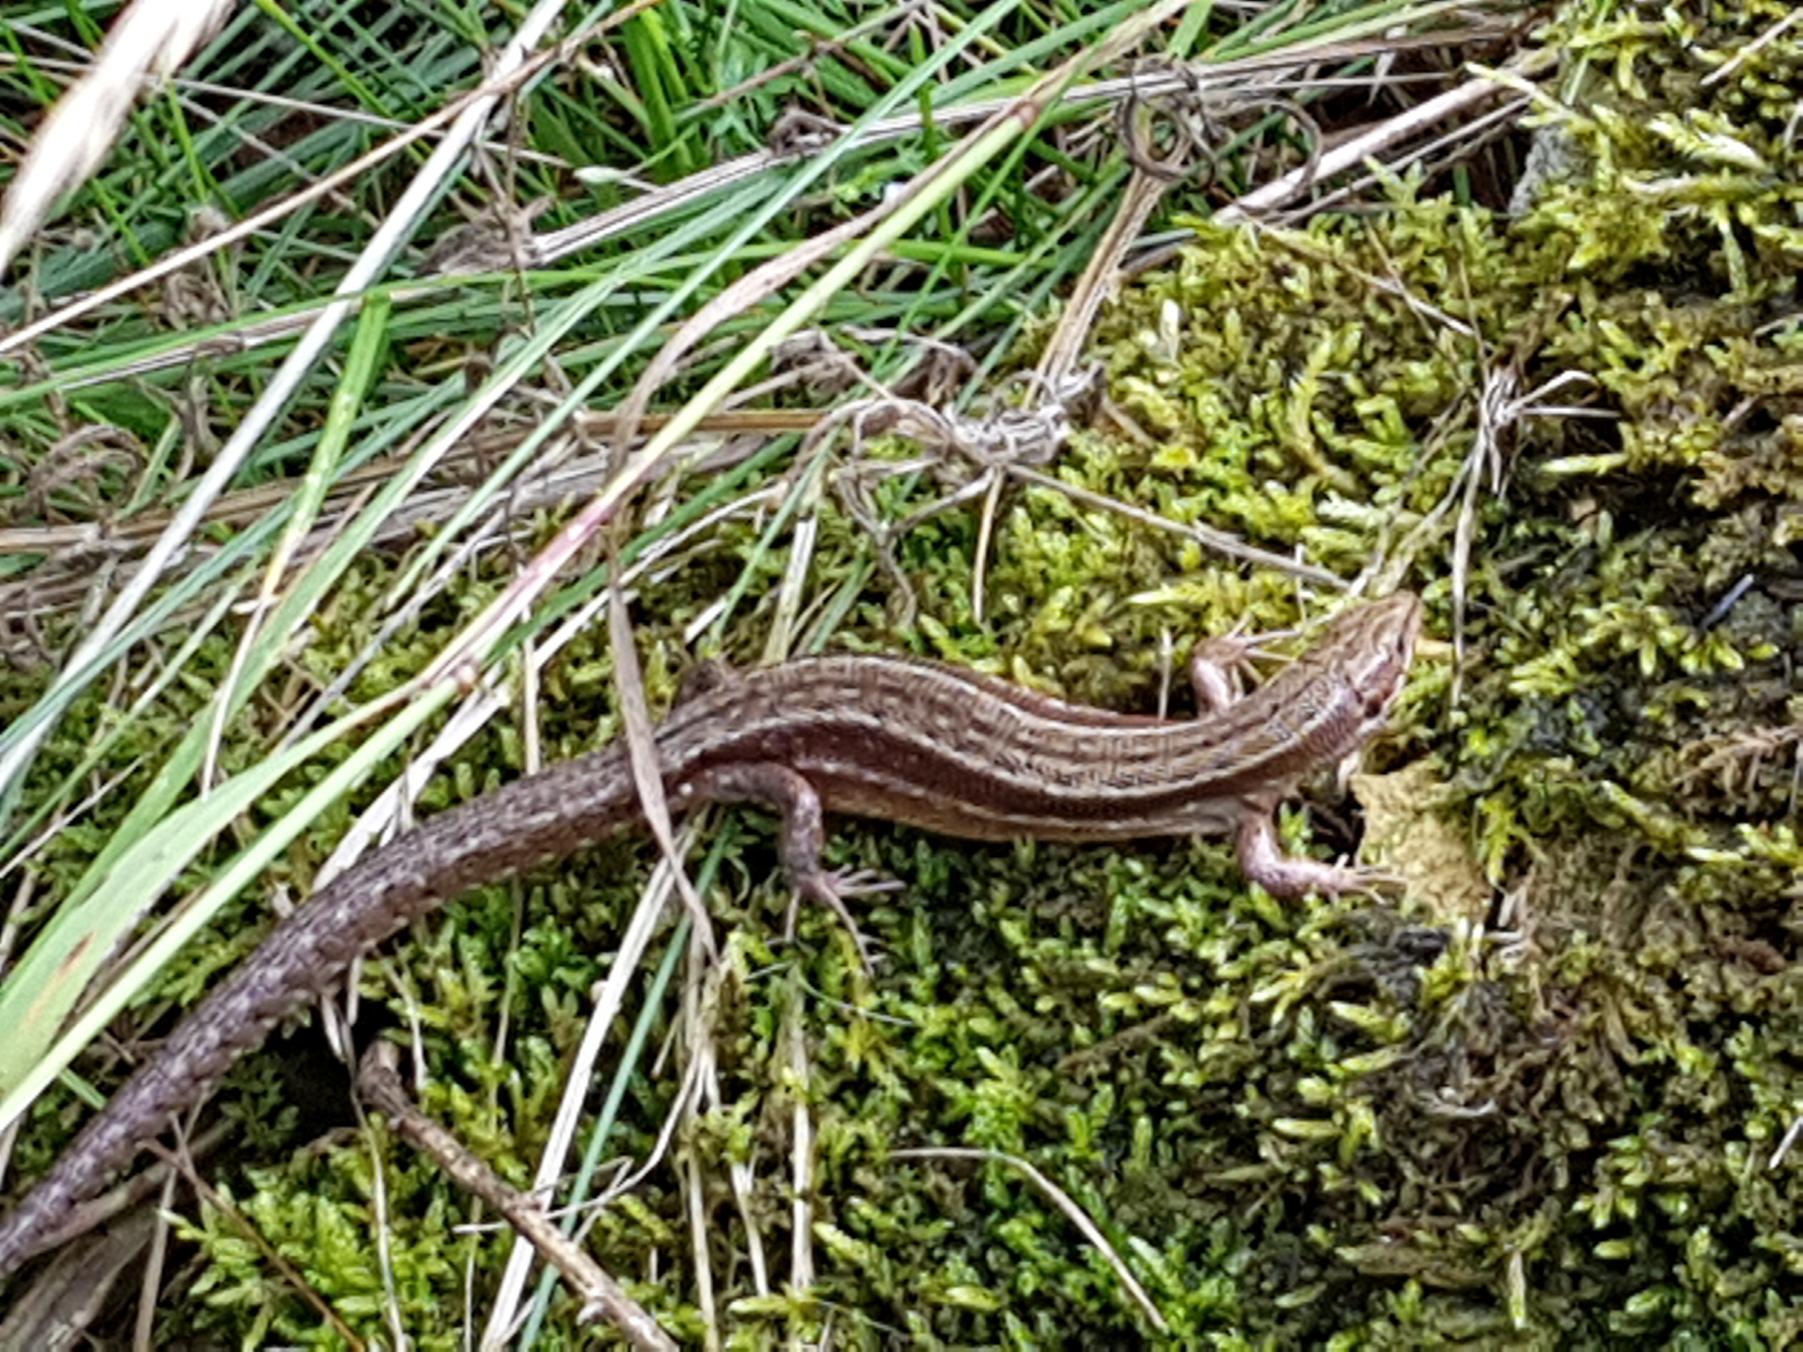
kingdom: Animalia
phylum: Chordata
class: Squamata
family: Lacertidae
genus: Zootoca
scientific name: Zootoca vivipara
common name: Skovfirben
